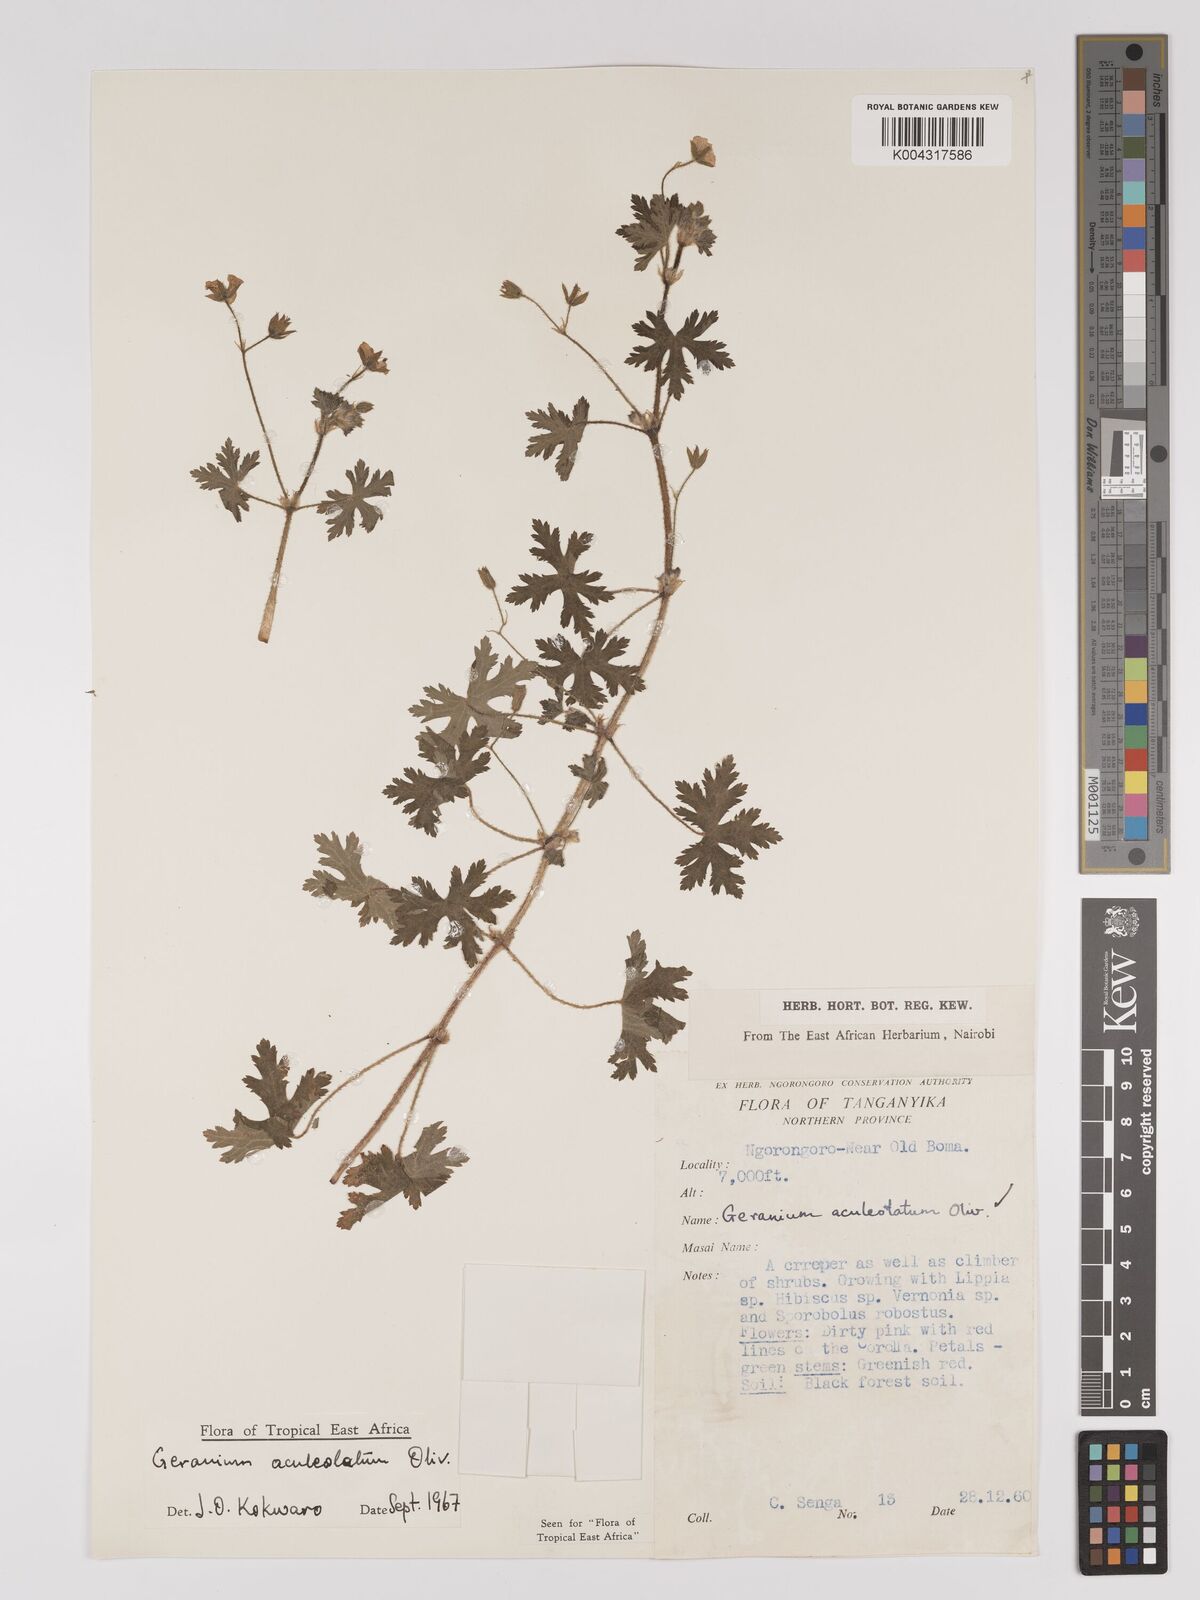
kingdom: Plantae
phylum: Tracheophyta
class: Magnoliopsida
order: Geraniales
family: Geraniaceae
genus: Geranium
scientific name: Geranium aculeolatum
